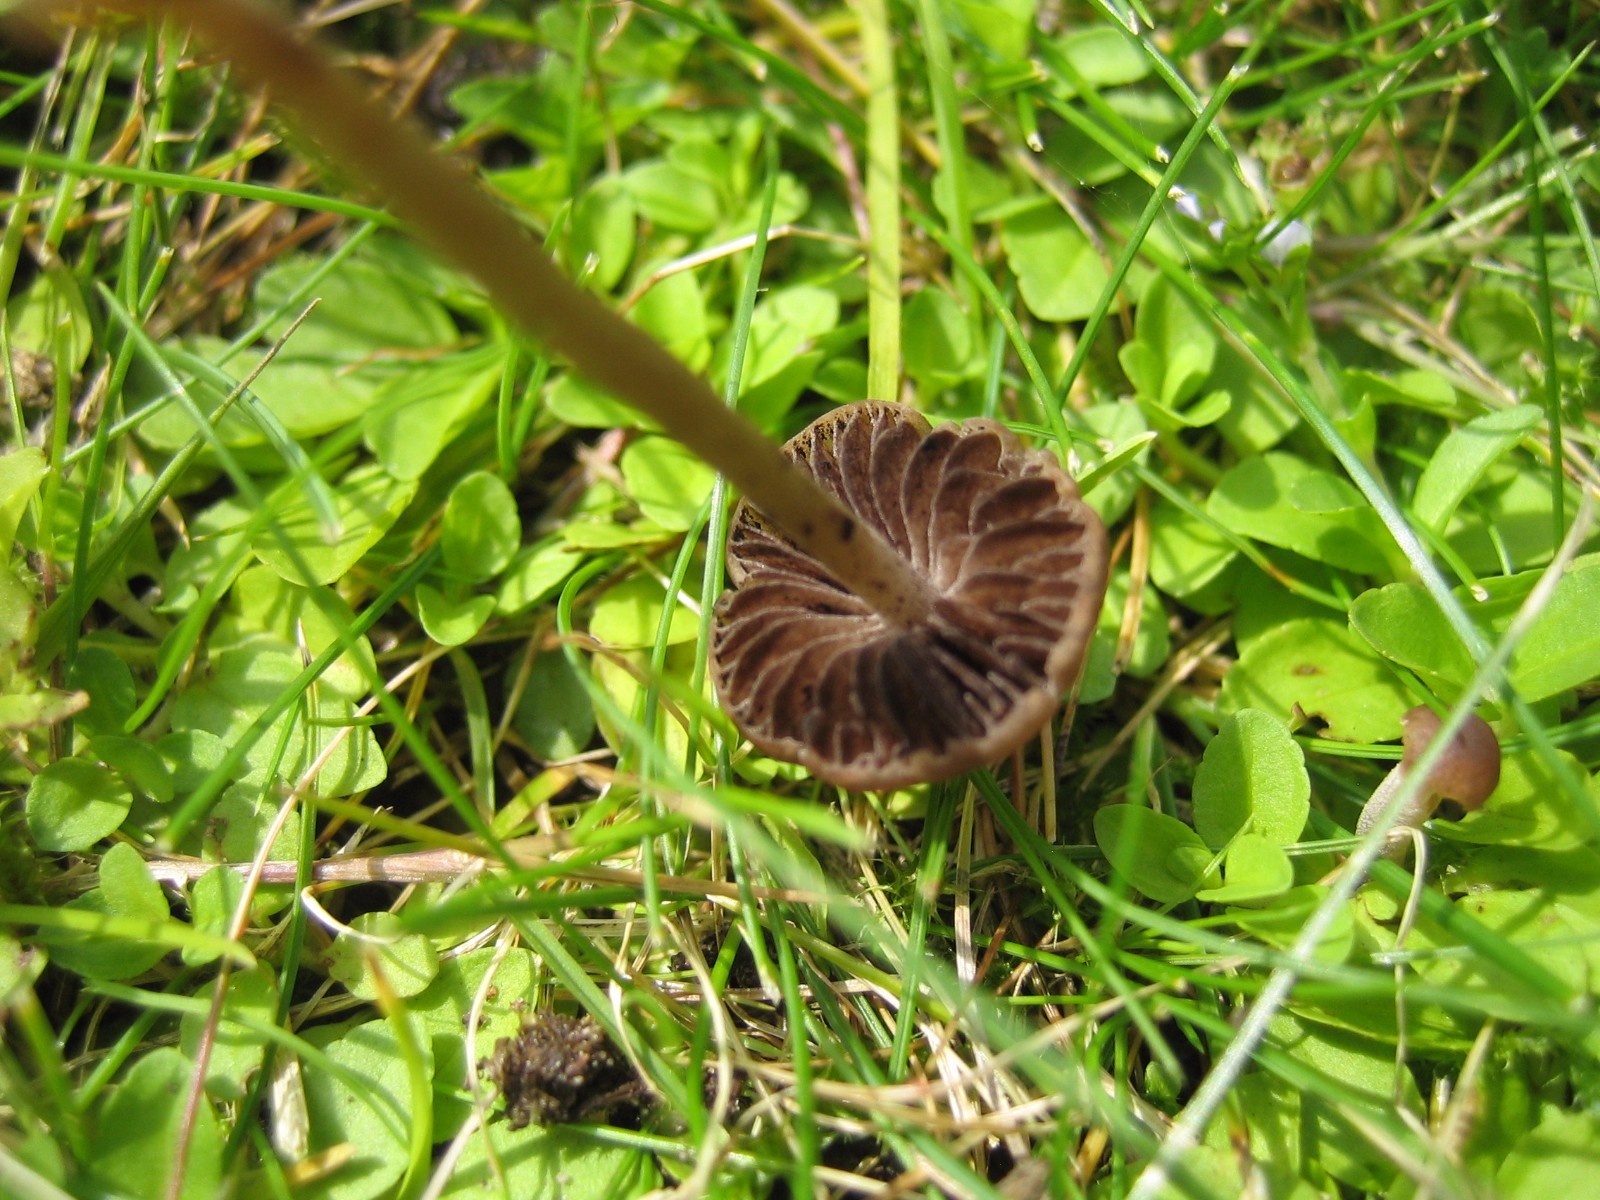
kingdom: Fungi
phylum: Basidiomycota
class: Agaricomycetes
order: Agaricales
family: Bolbitiaceae
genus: Panaeolina
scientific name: Panaeolina foenisecii
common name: høslætsvamp
